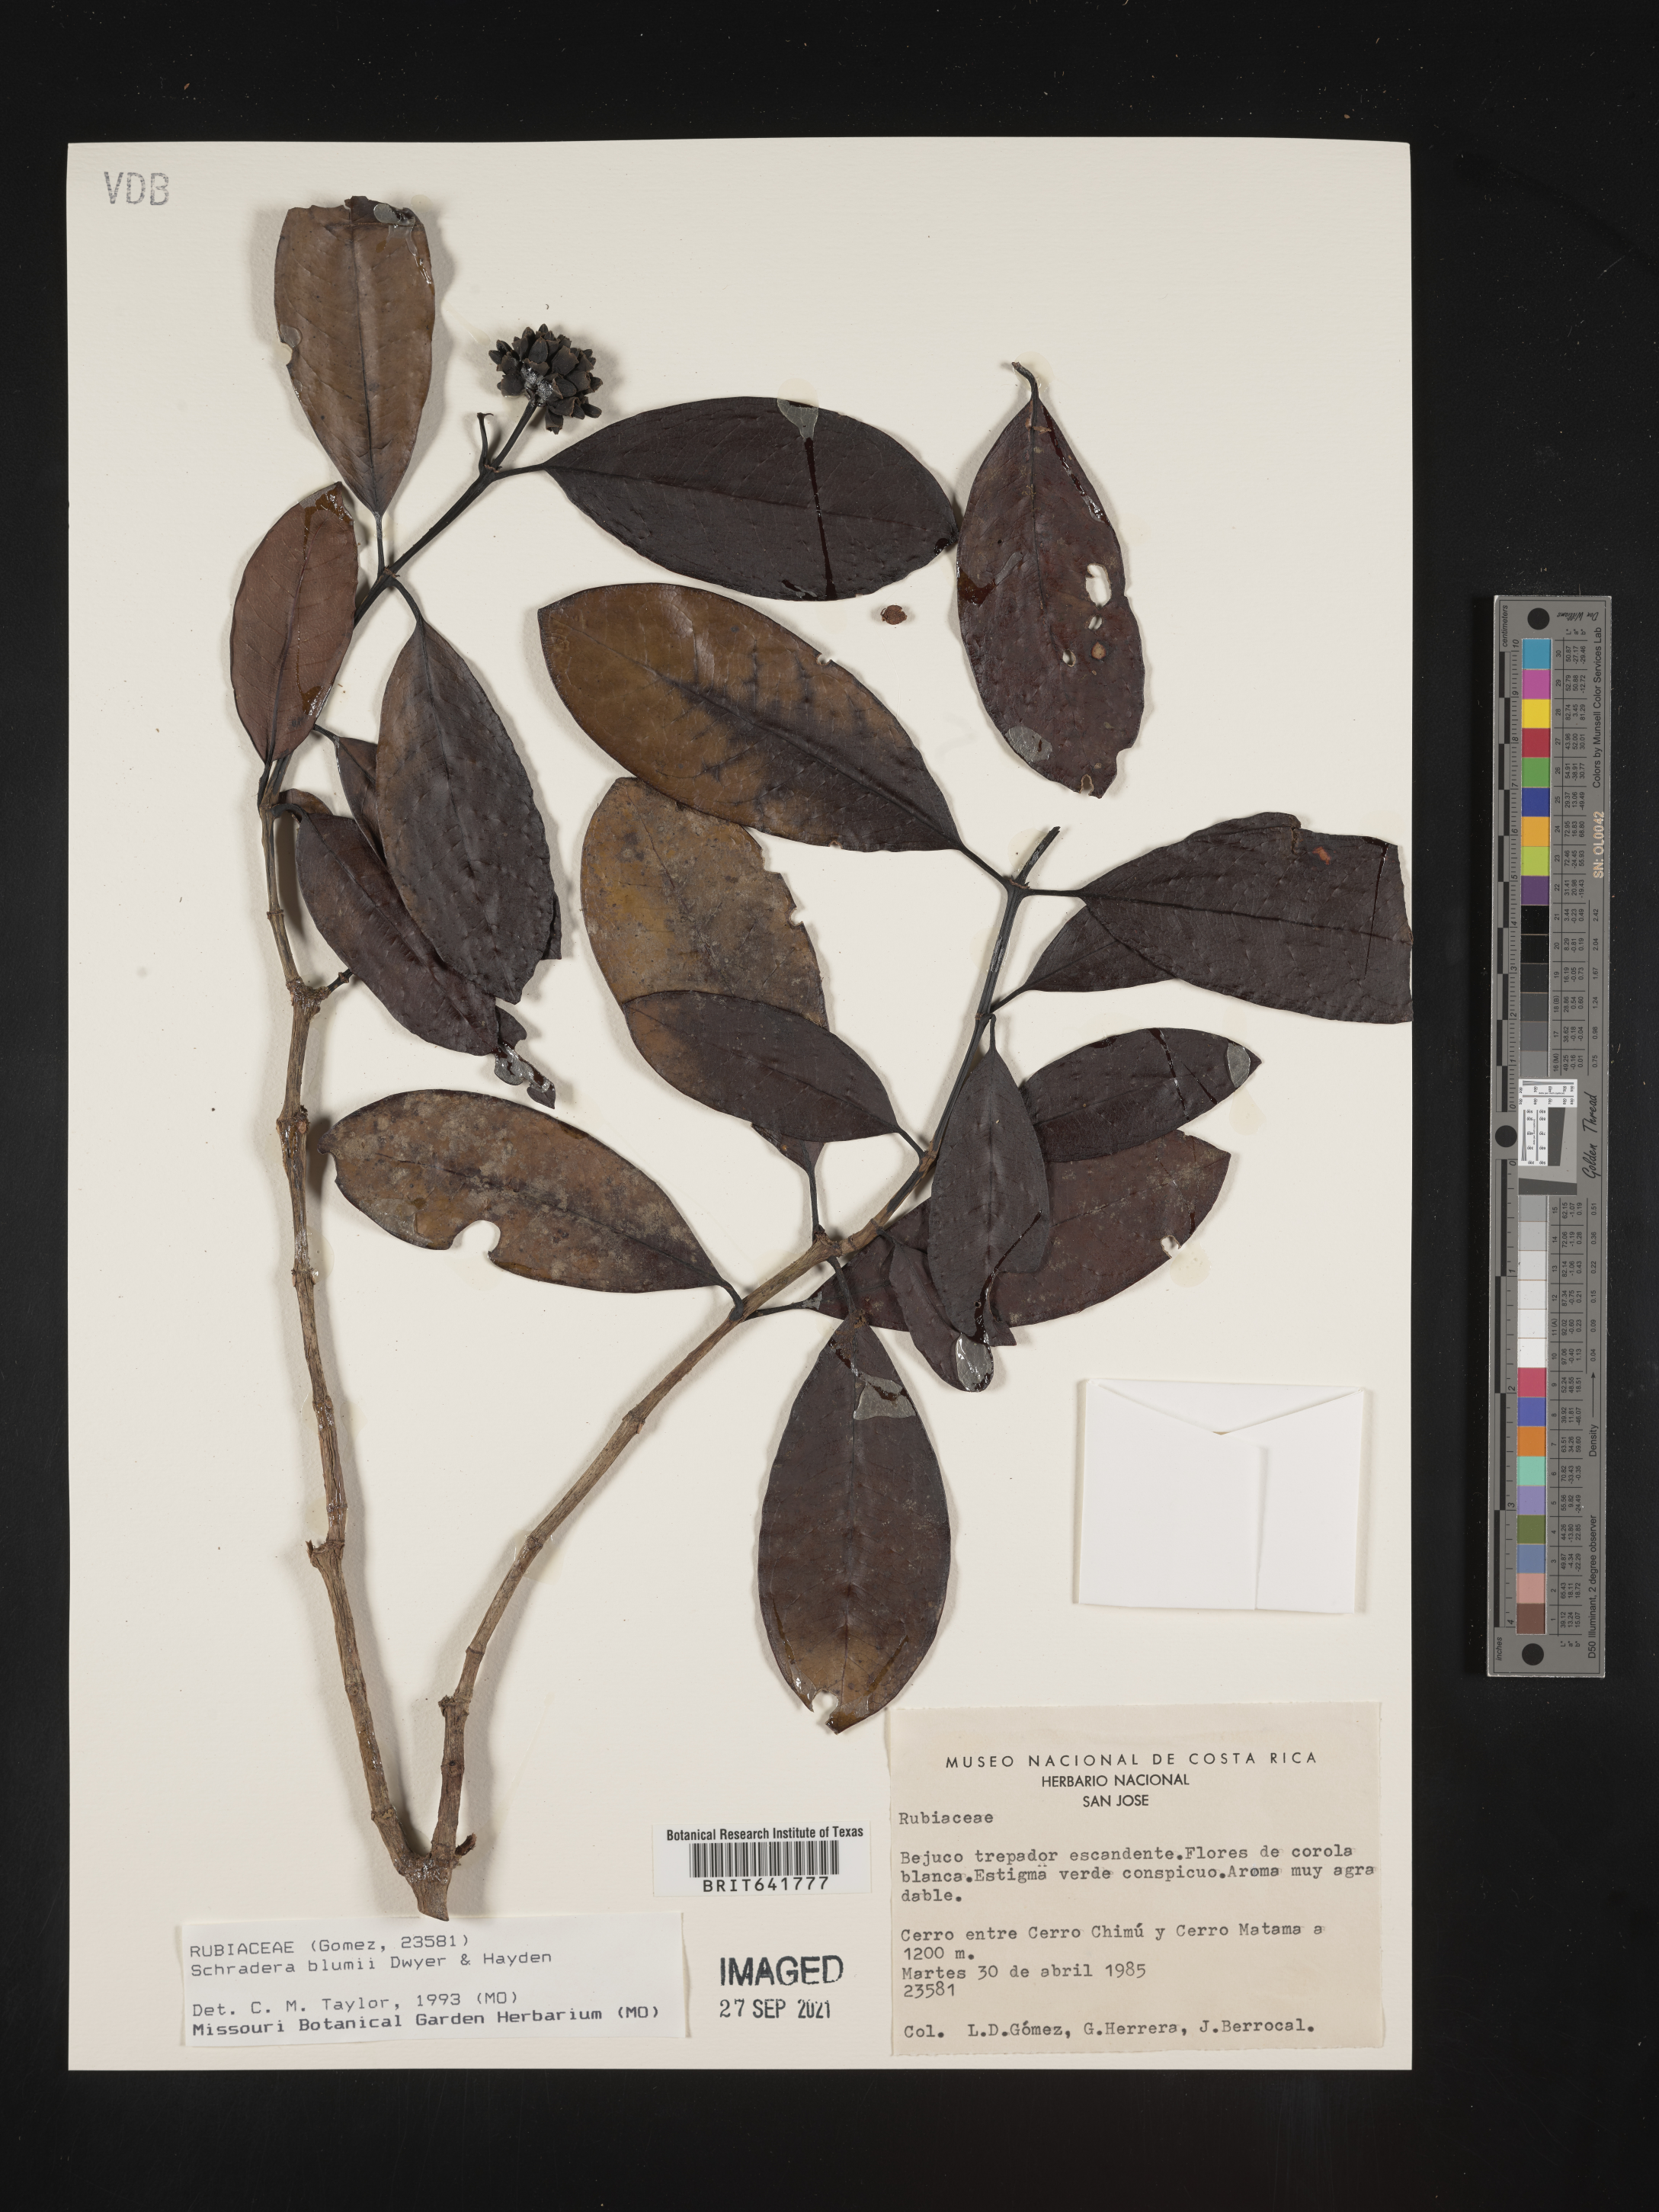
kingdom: Plantae
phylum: Tracheophyta
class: Magnoliopsida
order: Gentianales
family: Rubiaceae
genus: Schradera
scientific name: Schradera
